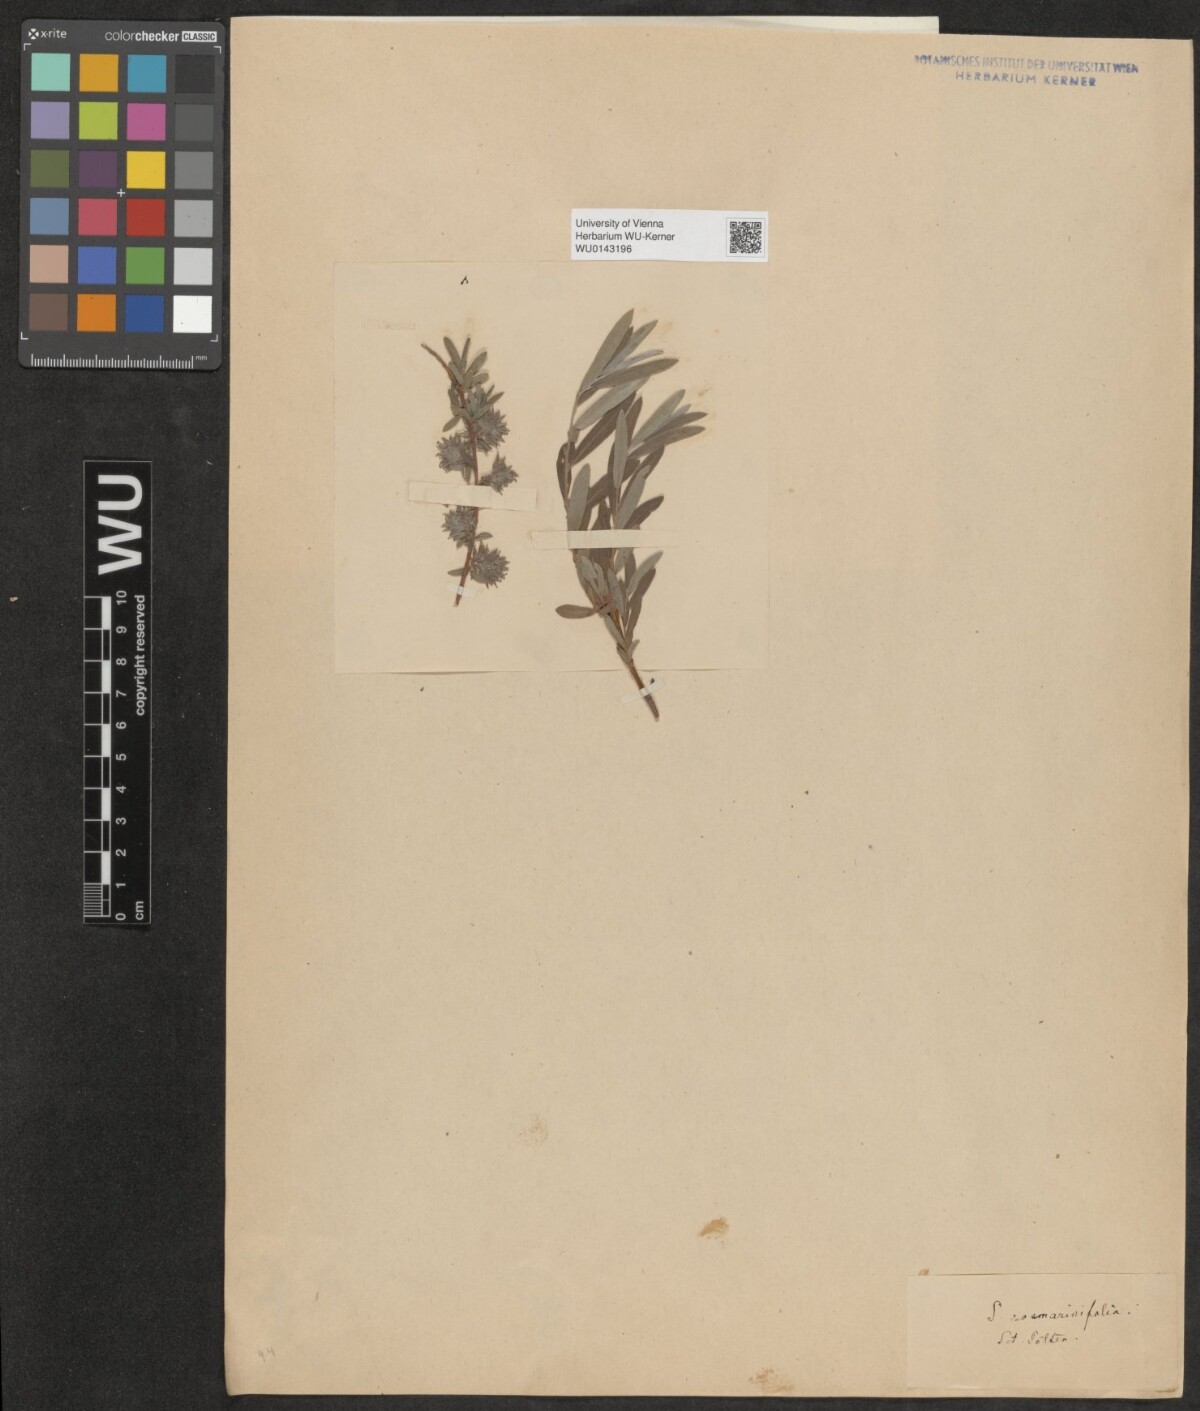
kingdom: Plantae
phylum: Tracheophyta
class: Magnoliopsida
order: Malpighiales
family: Salicaceae
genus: Salix
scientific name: Salix repens
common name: Creeping willow
